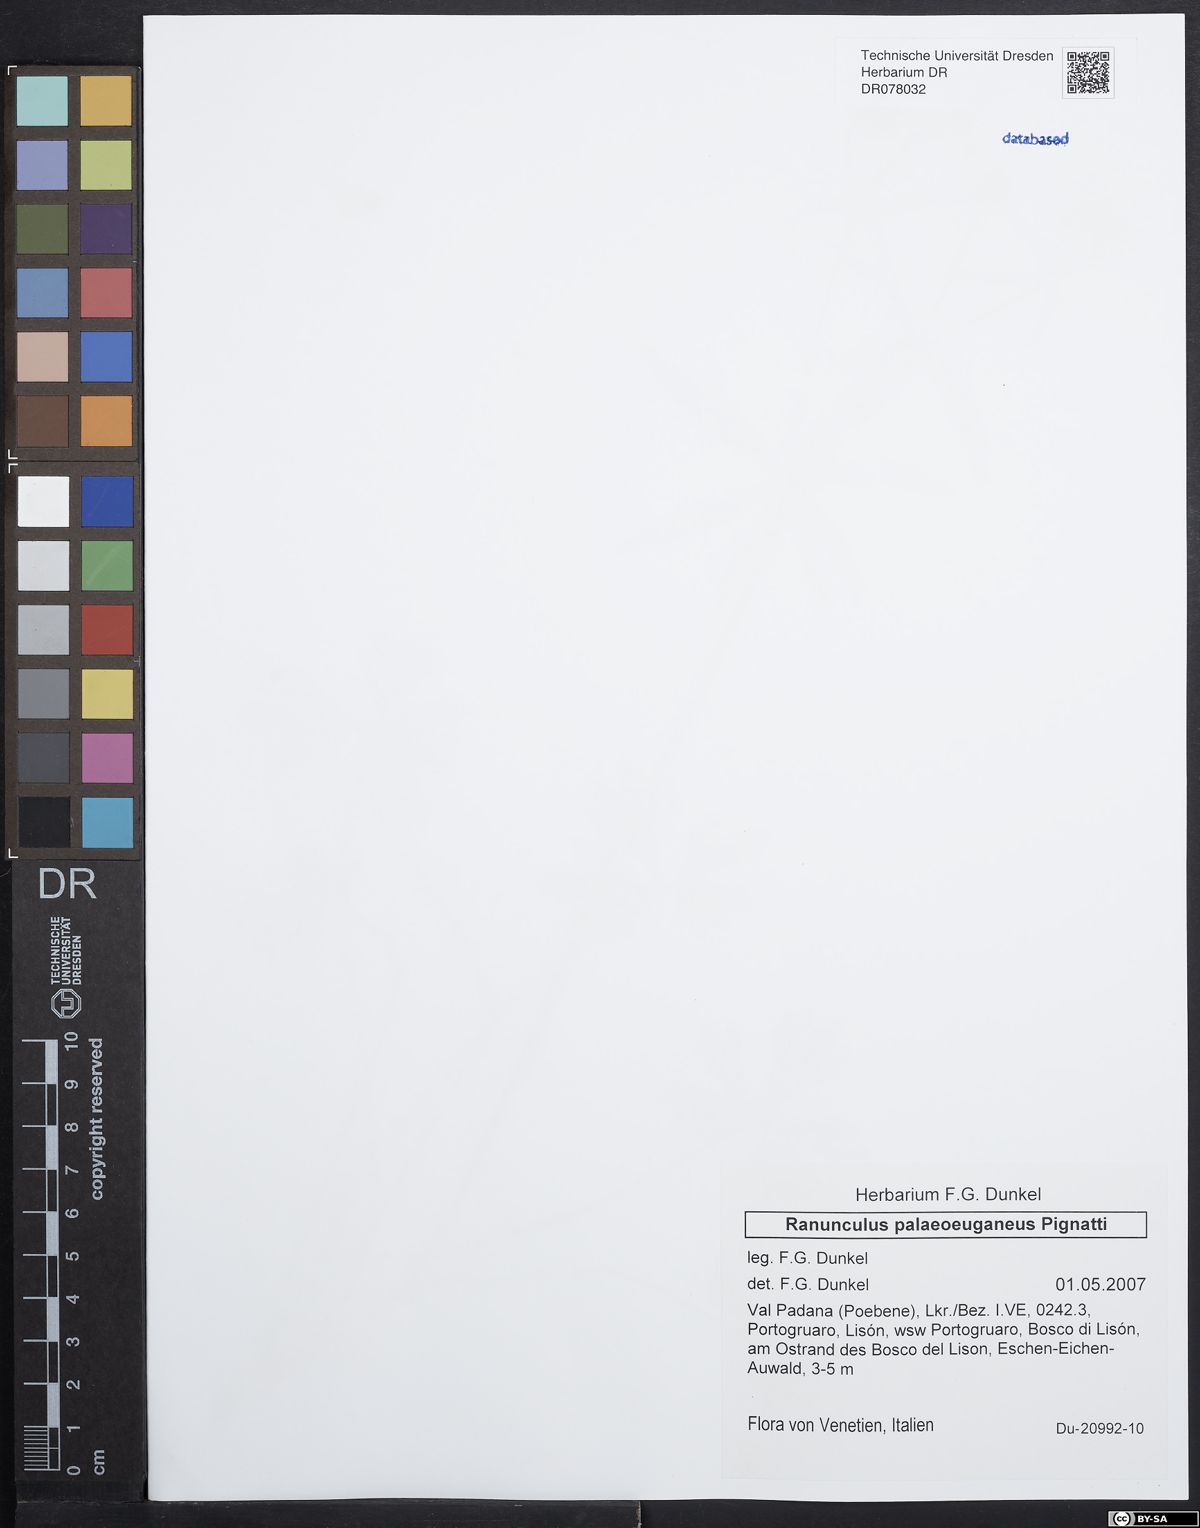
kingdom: Plantae
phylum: Tracheophyta
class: Magnoliopsida
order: Ranunculales
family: Ranunculaceae
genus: Ranunculus
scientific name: Ranunculus palaeoeuganeus
